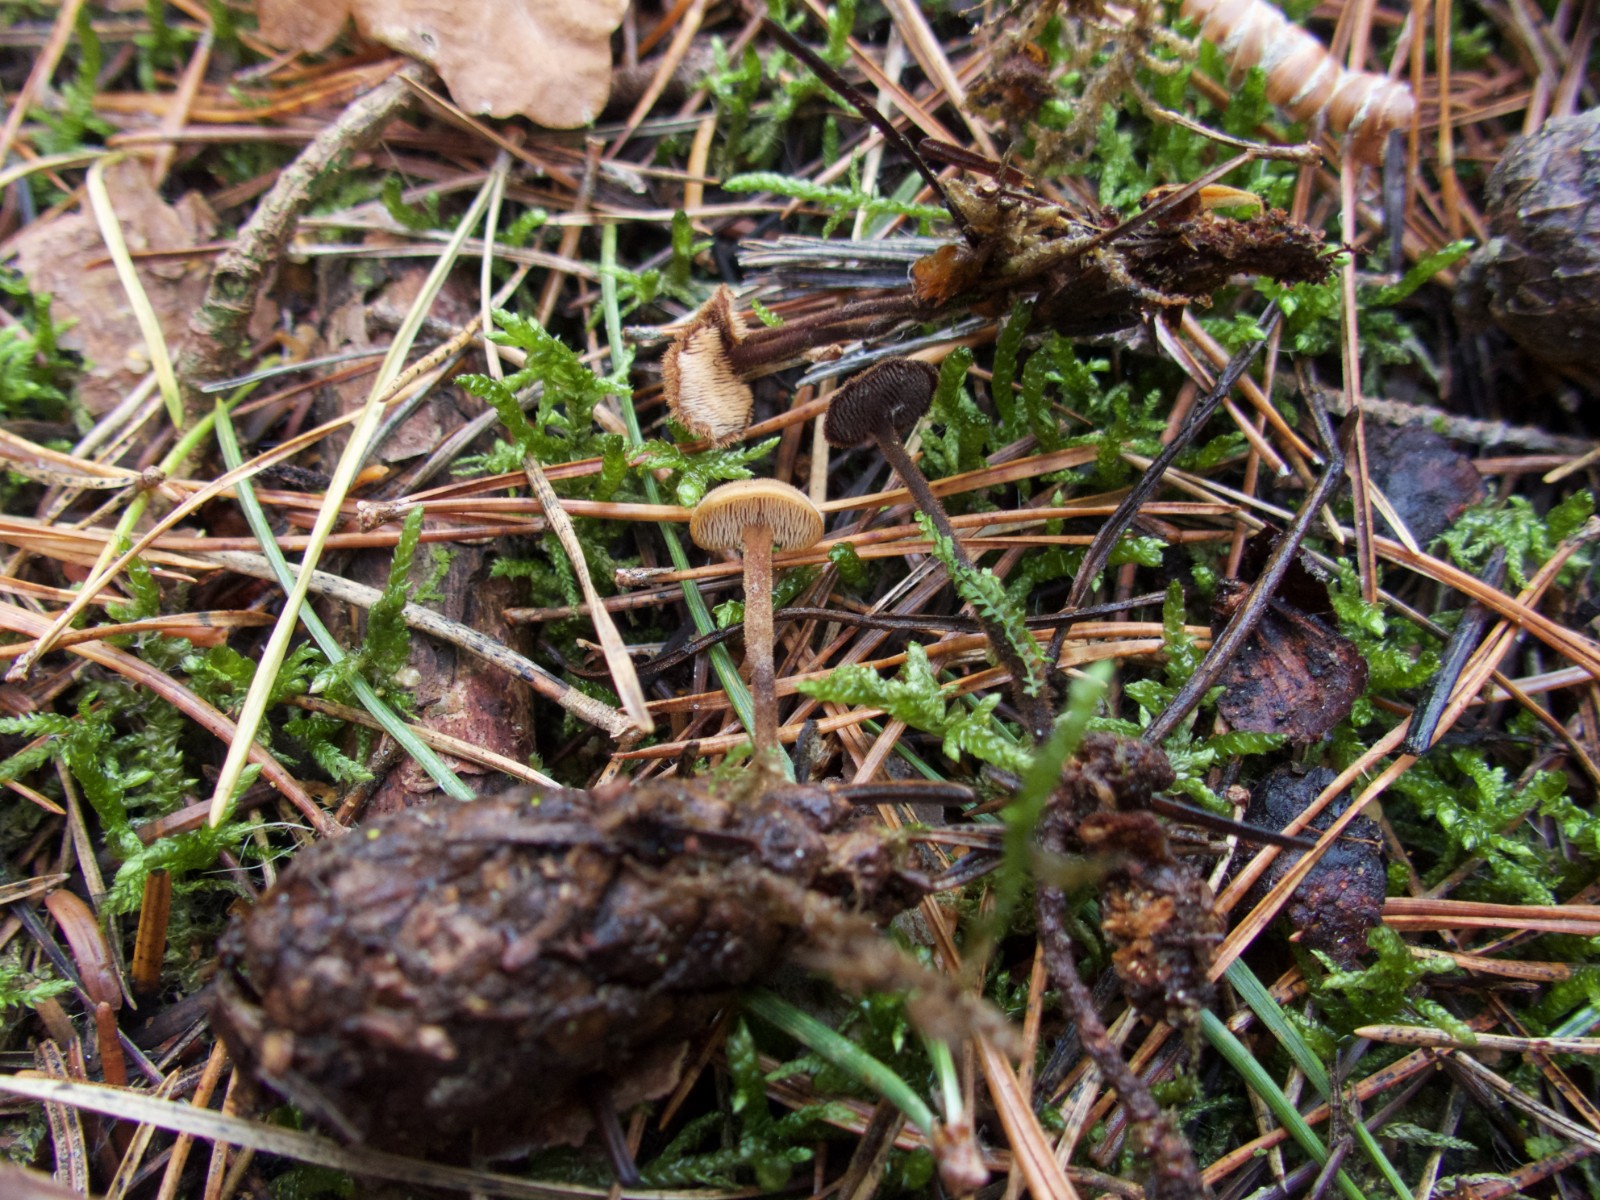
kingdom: Fungi
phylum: Basidiomycota
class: Agaricomycetes
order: Russulales
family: Auriscalpiaceae
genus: Auriscalpium
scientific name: Auriscalpium vulgare
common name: koglepigsvamp
